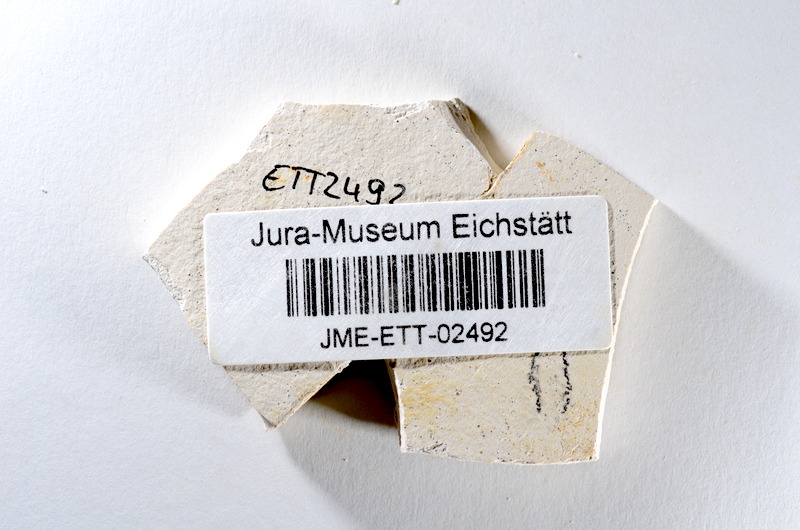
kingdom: Animalia
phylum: Chordata
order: Salmoniformes
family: Orthogonikleithridae
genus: Orthogonikleithrus
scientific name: Orthogonikleithrus hoelli
